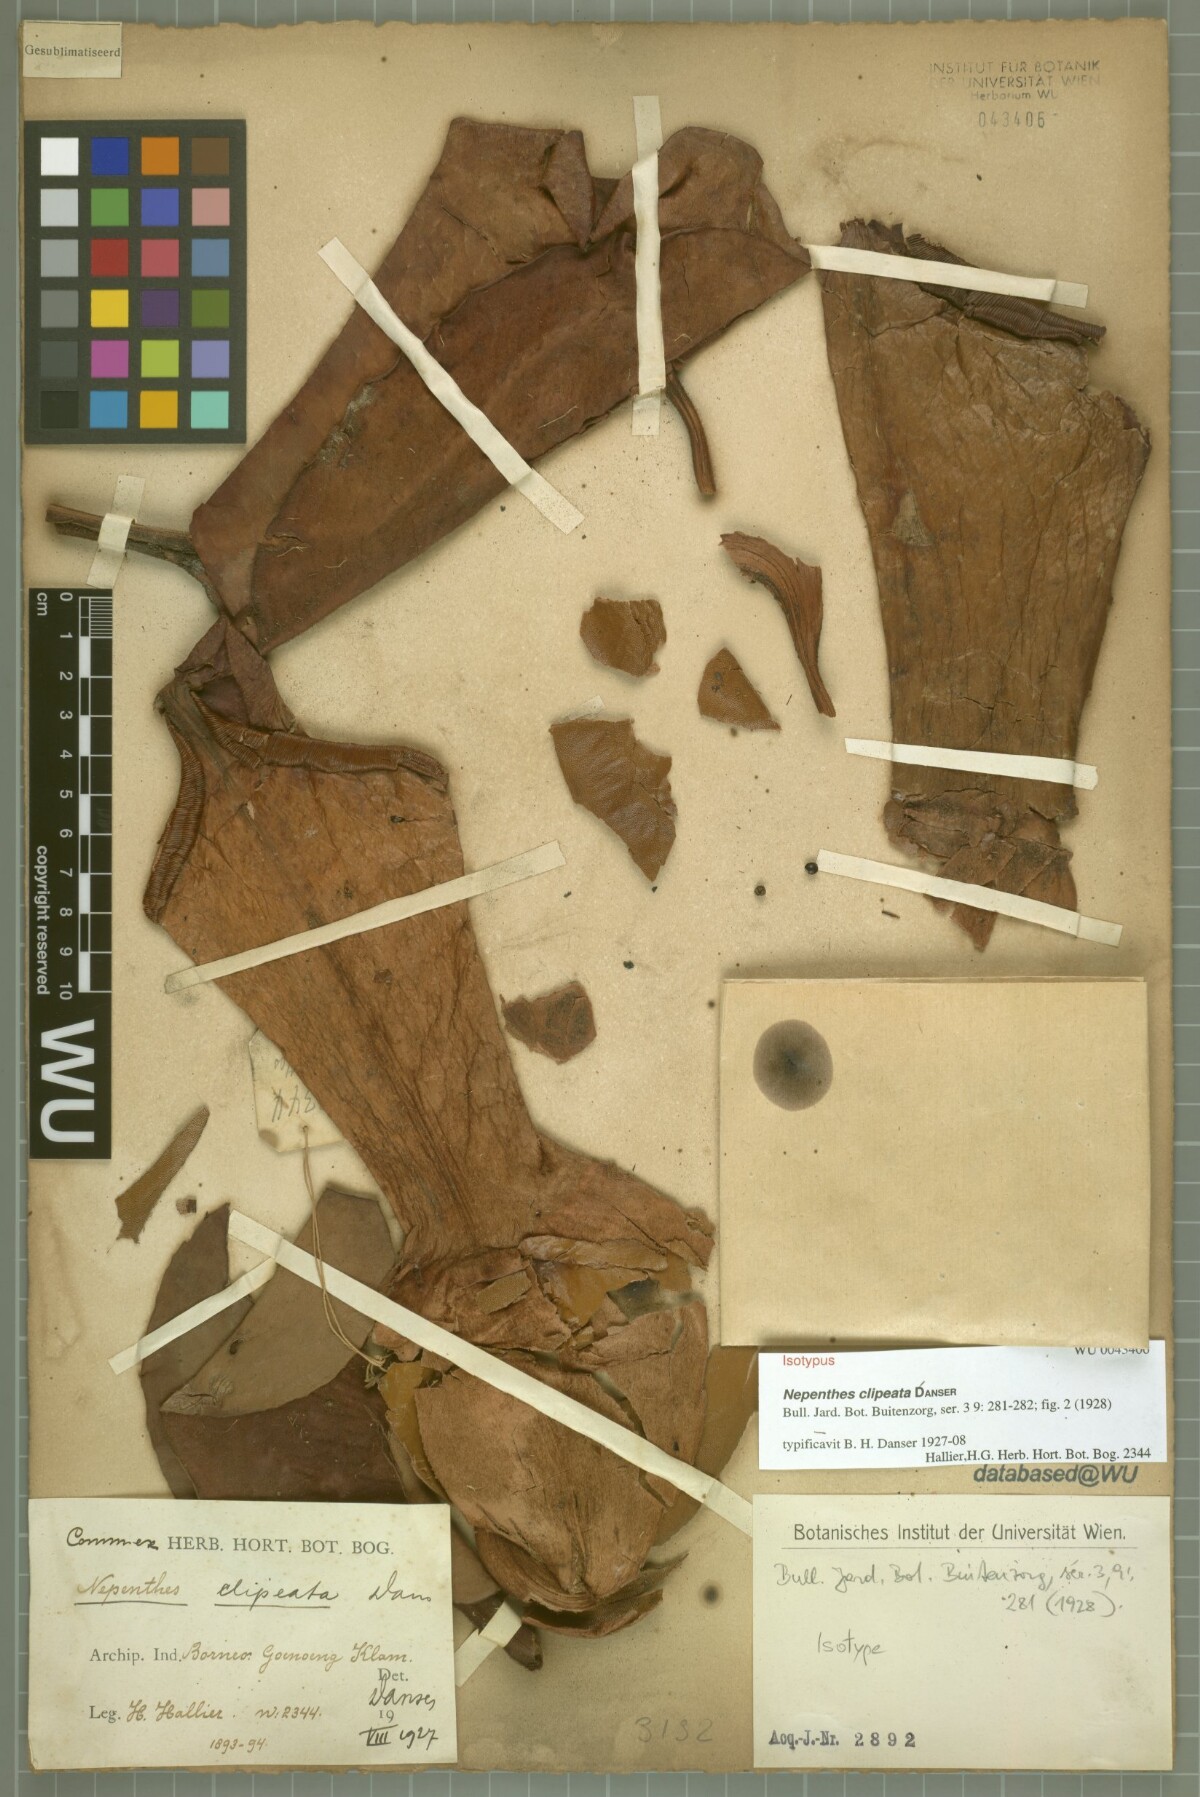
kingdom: Plantae
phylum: Tracheophyta
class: Magnoliopsida
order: Caryophyllales
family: Nepenthaceae
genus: Nepenthes
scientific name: Nepenthes clipeata
